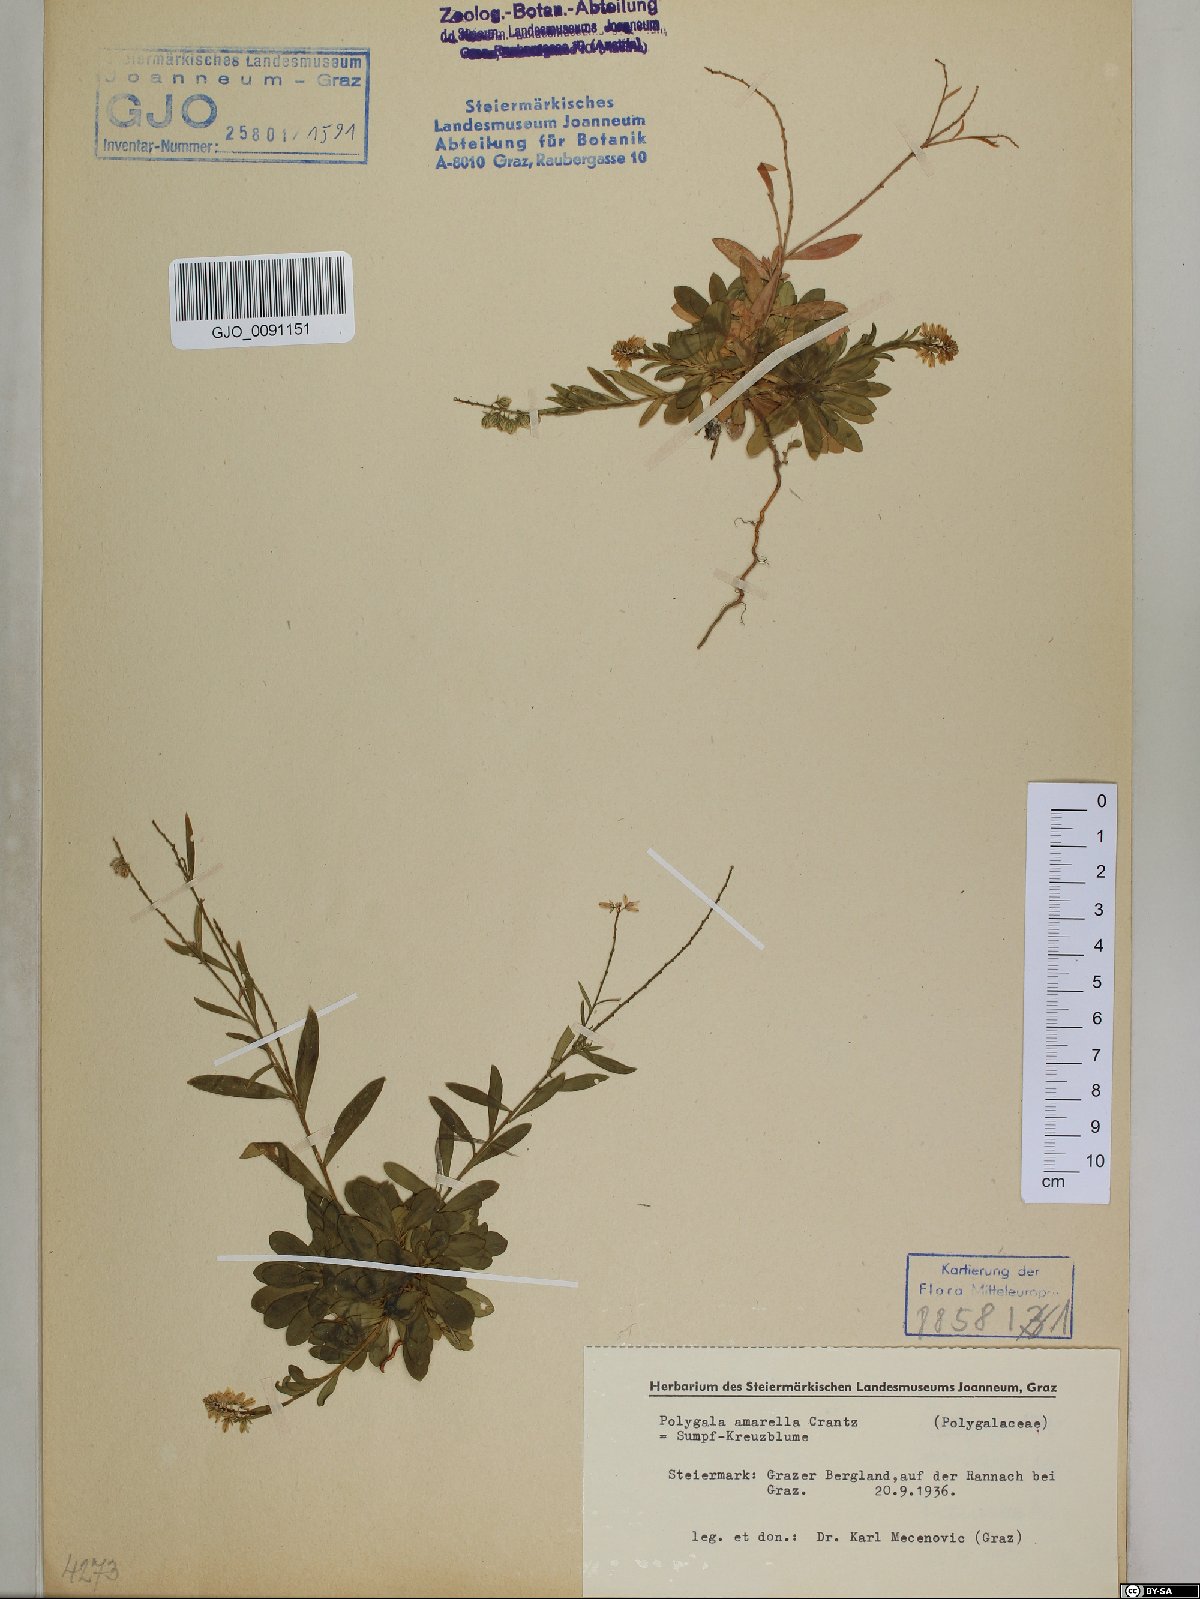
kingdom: Plantae
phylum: Tracheophyta
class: Magnoliopsida
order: Fabales
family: Polygalaceae
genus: Polygala
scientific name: Polygala amarella
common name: Dwarf milkwort
